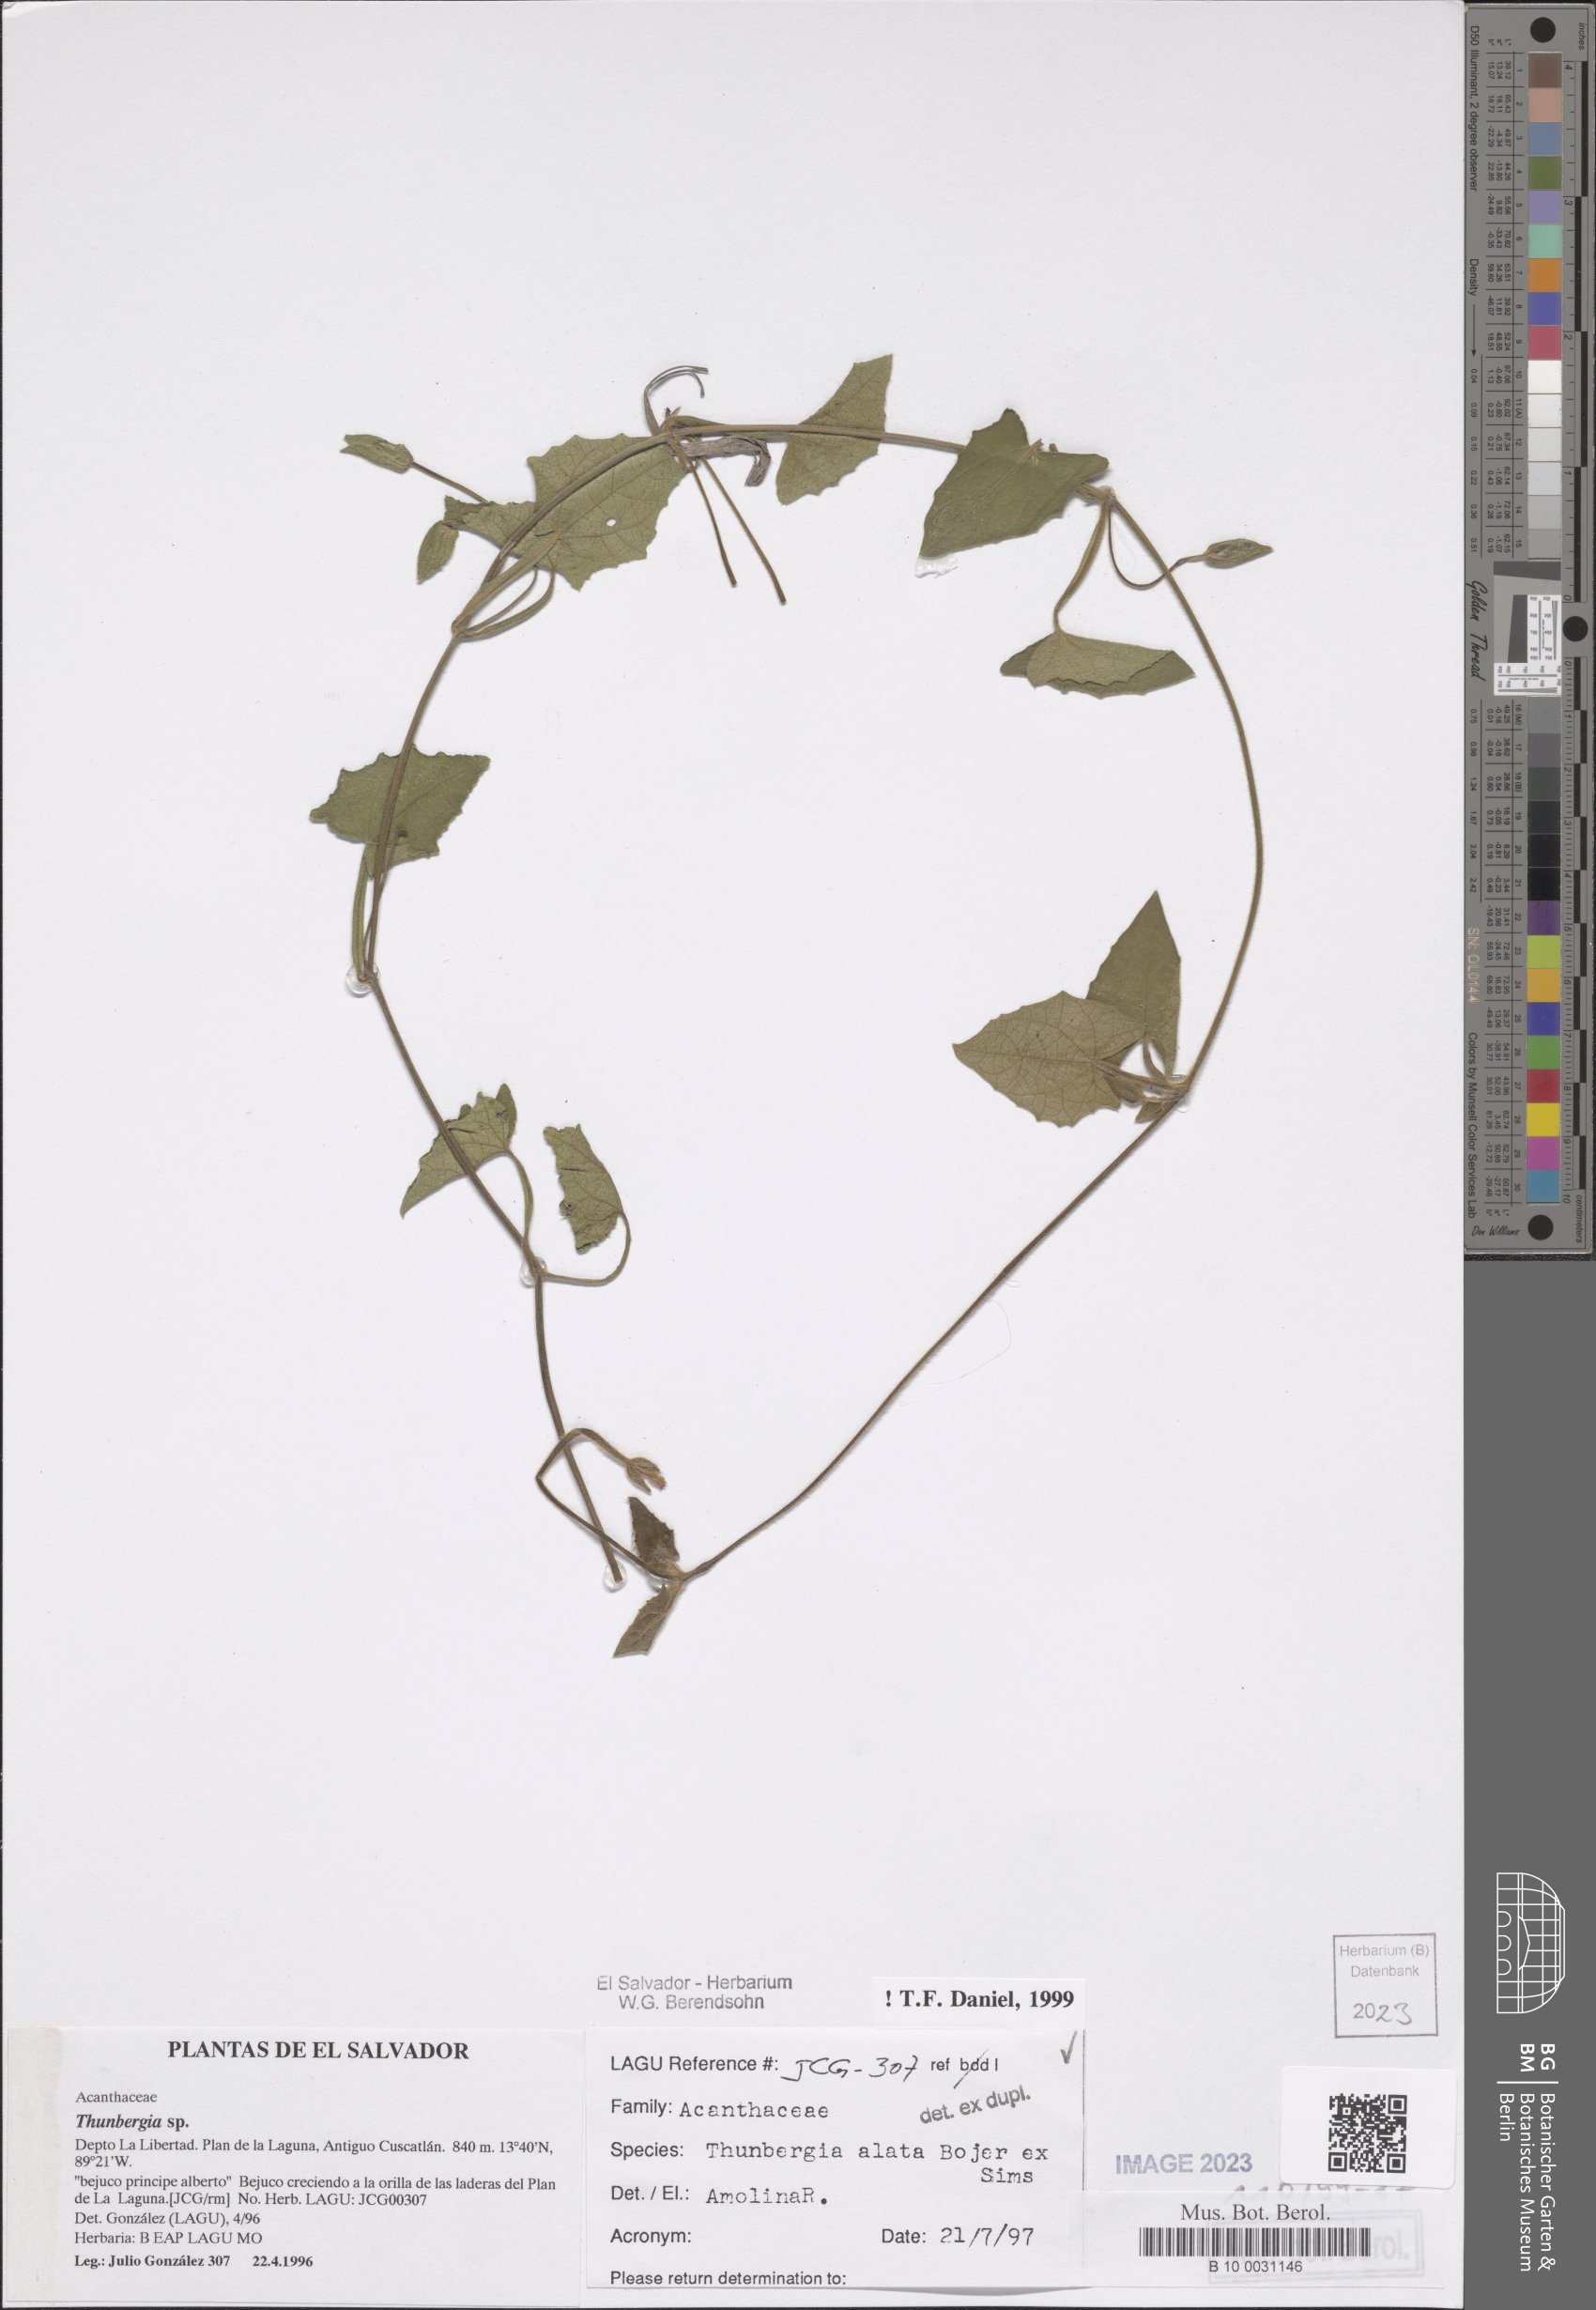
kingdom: Plantae
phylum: Tracheophyta
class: Magnoliopsida
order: Lamiales
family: Acanthaceae
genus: Thunbergia
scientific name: Thunbergia alata
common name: Blackeyed susan vine
